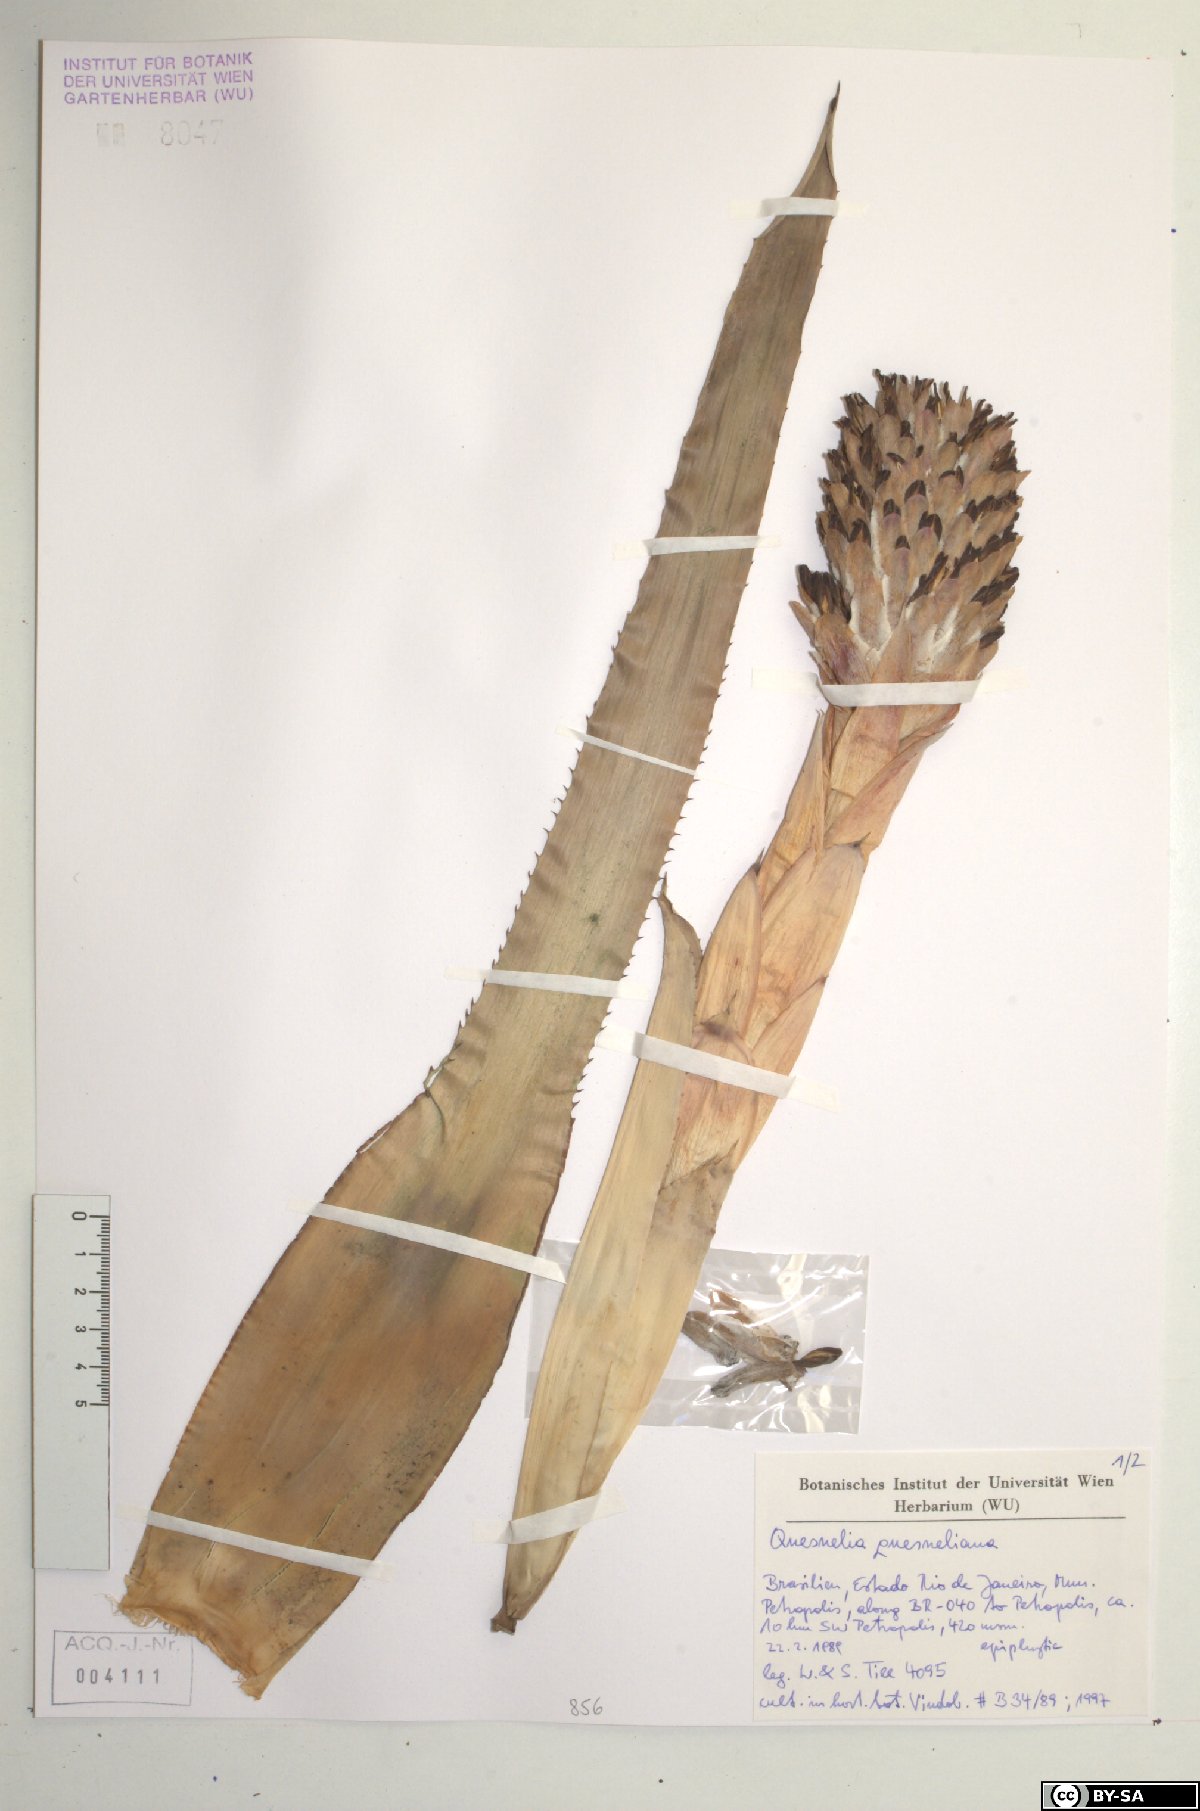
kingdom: Plantae
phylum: Tracheophyta
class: Liliopsida
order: Poales
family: Bromeliaceae
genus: Quesnelia
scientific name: Quesnelia quesneliana
